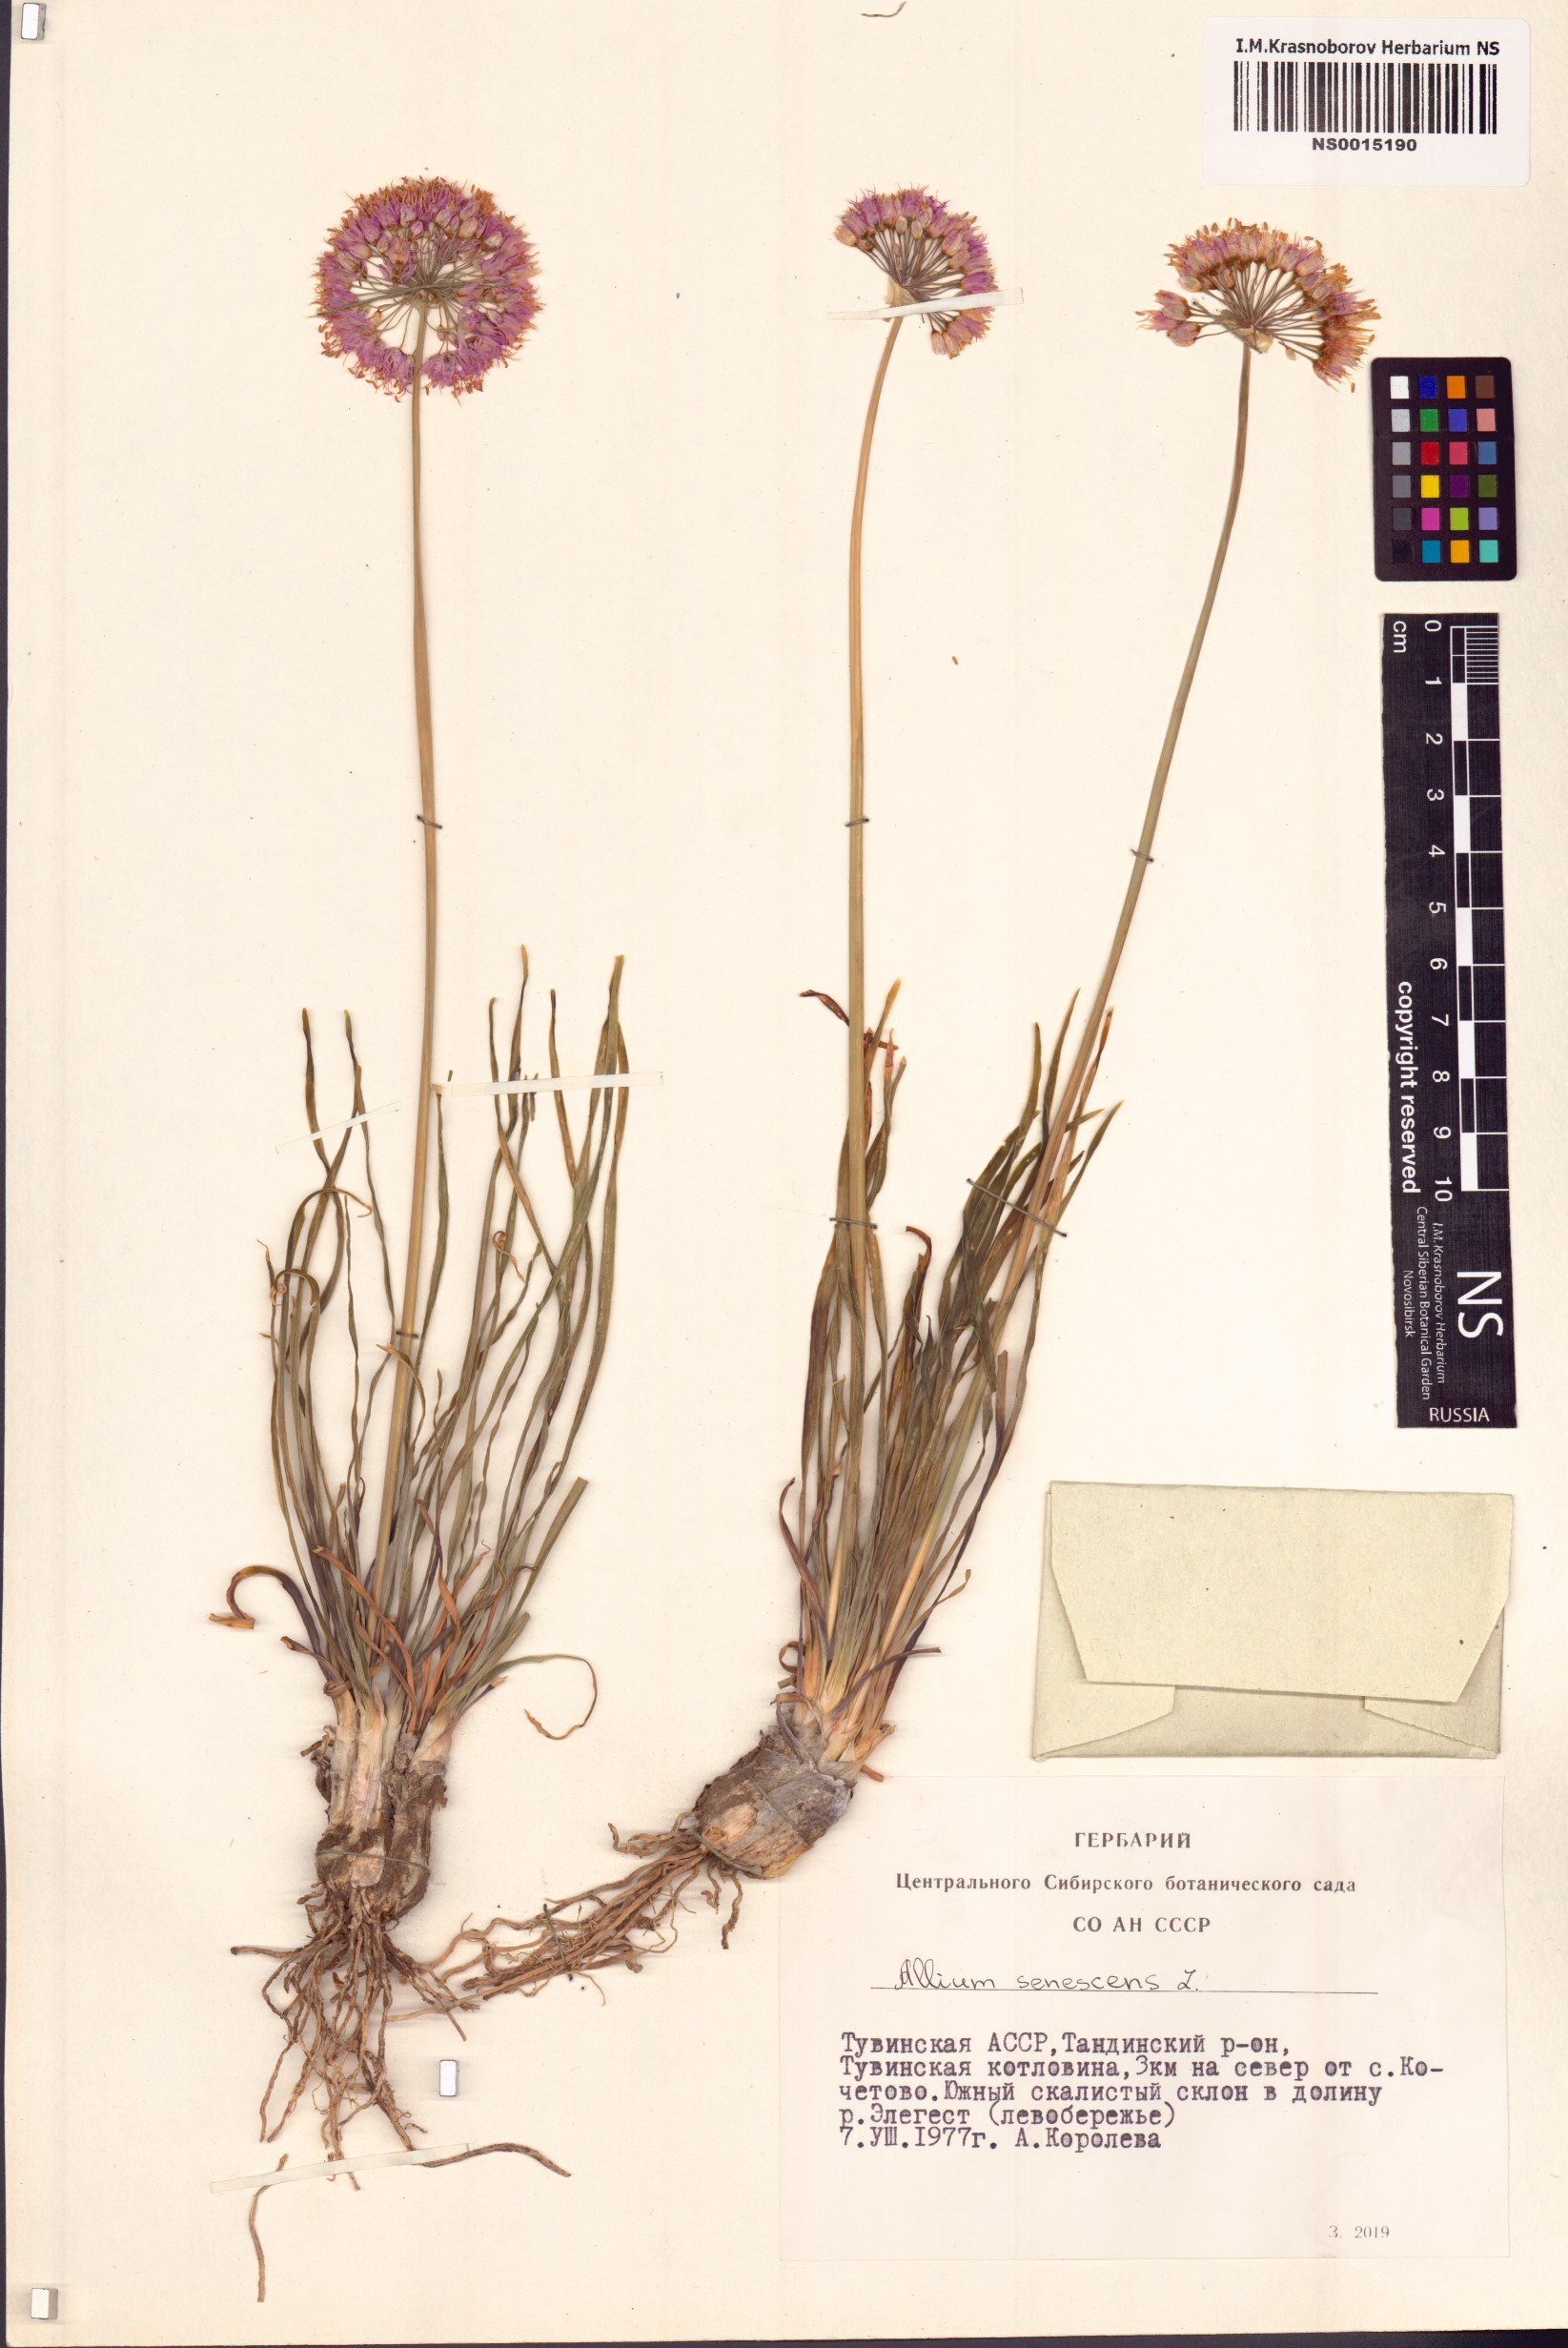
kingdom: Plantae
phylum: Tracheophyta
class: Liliopsida
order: Asparagales
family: Amaryllidaceae
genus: Allium
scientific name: Allium senescens
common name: German garlic
